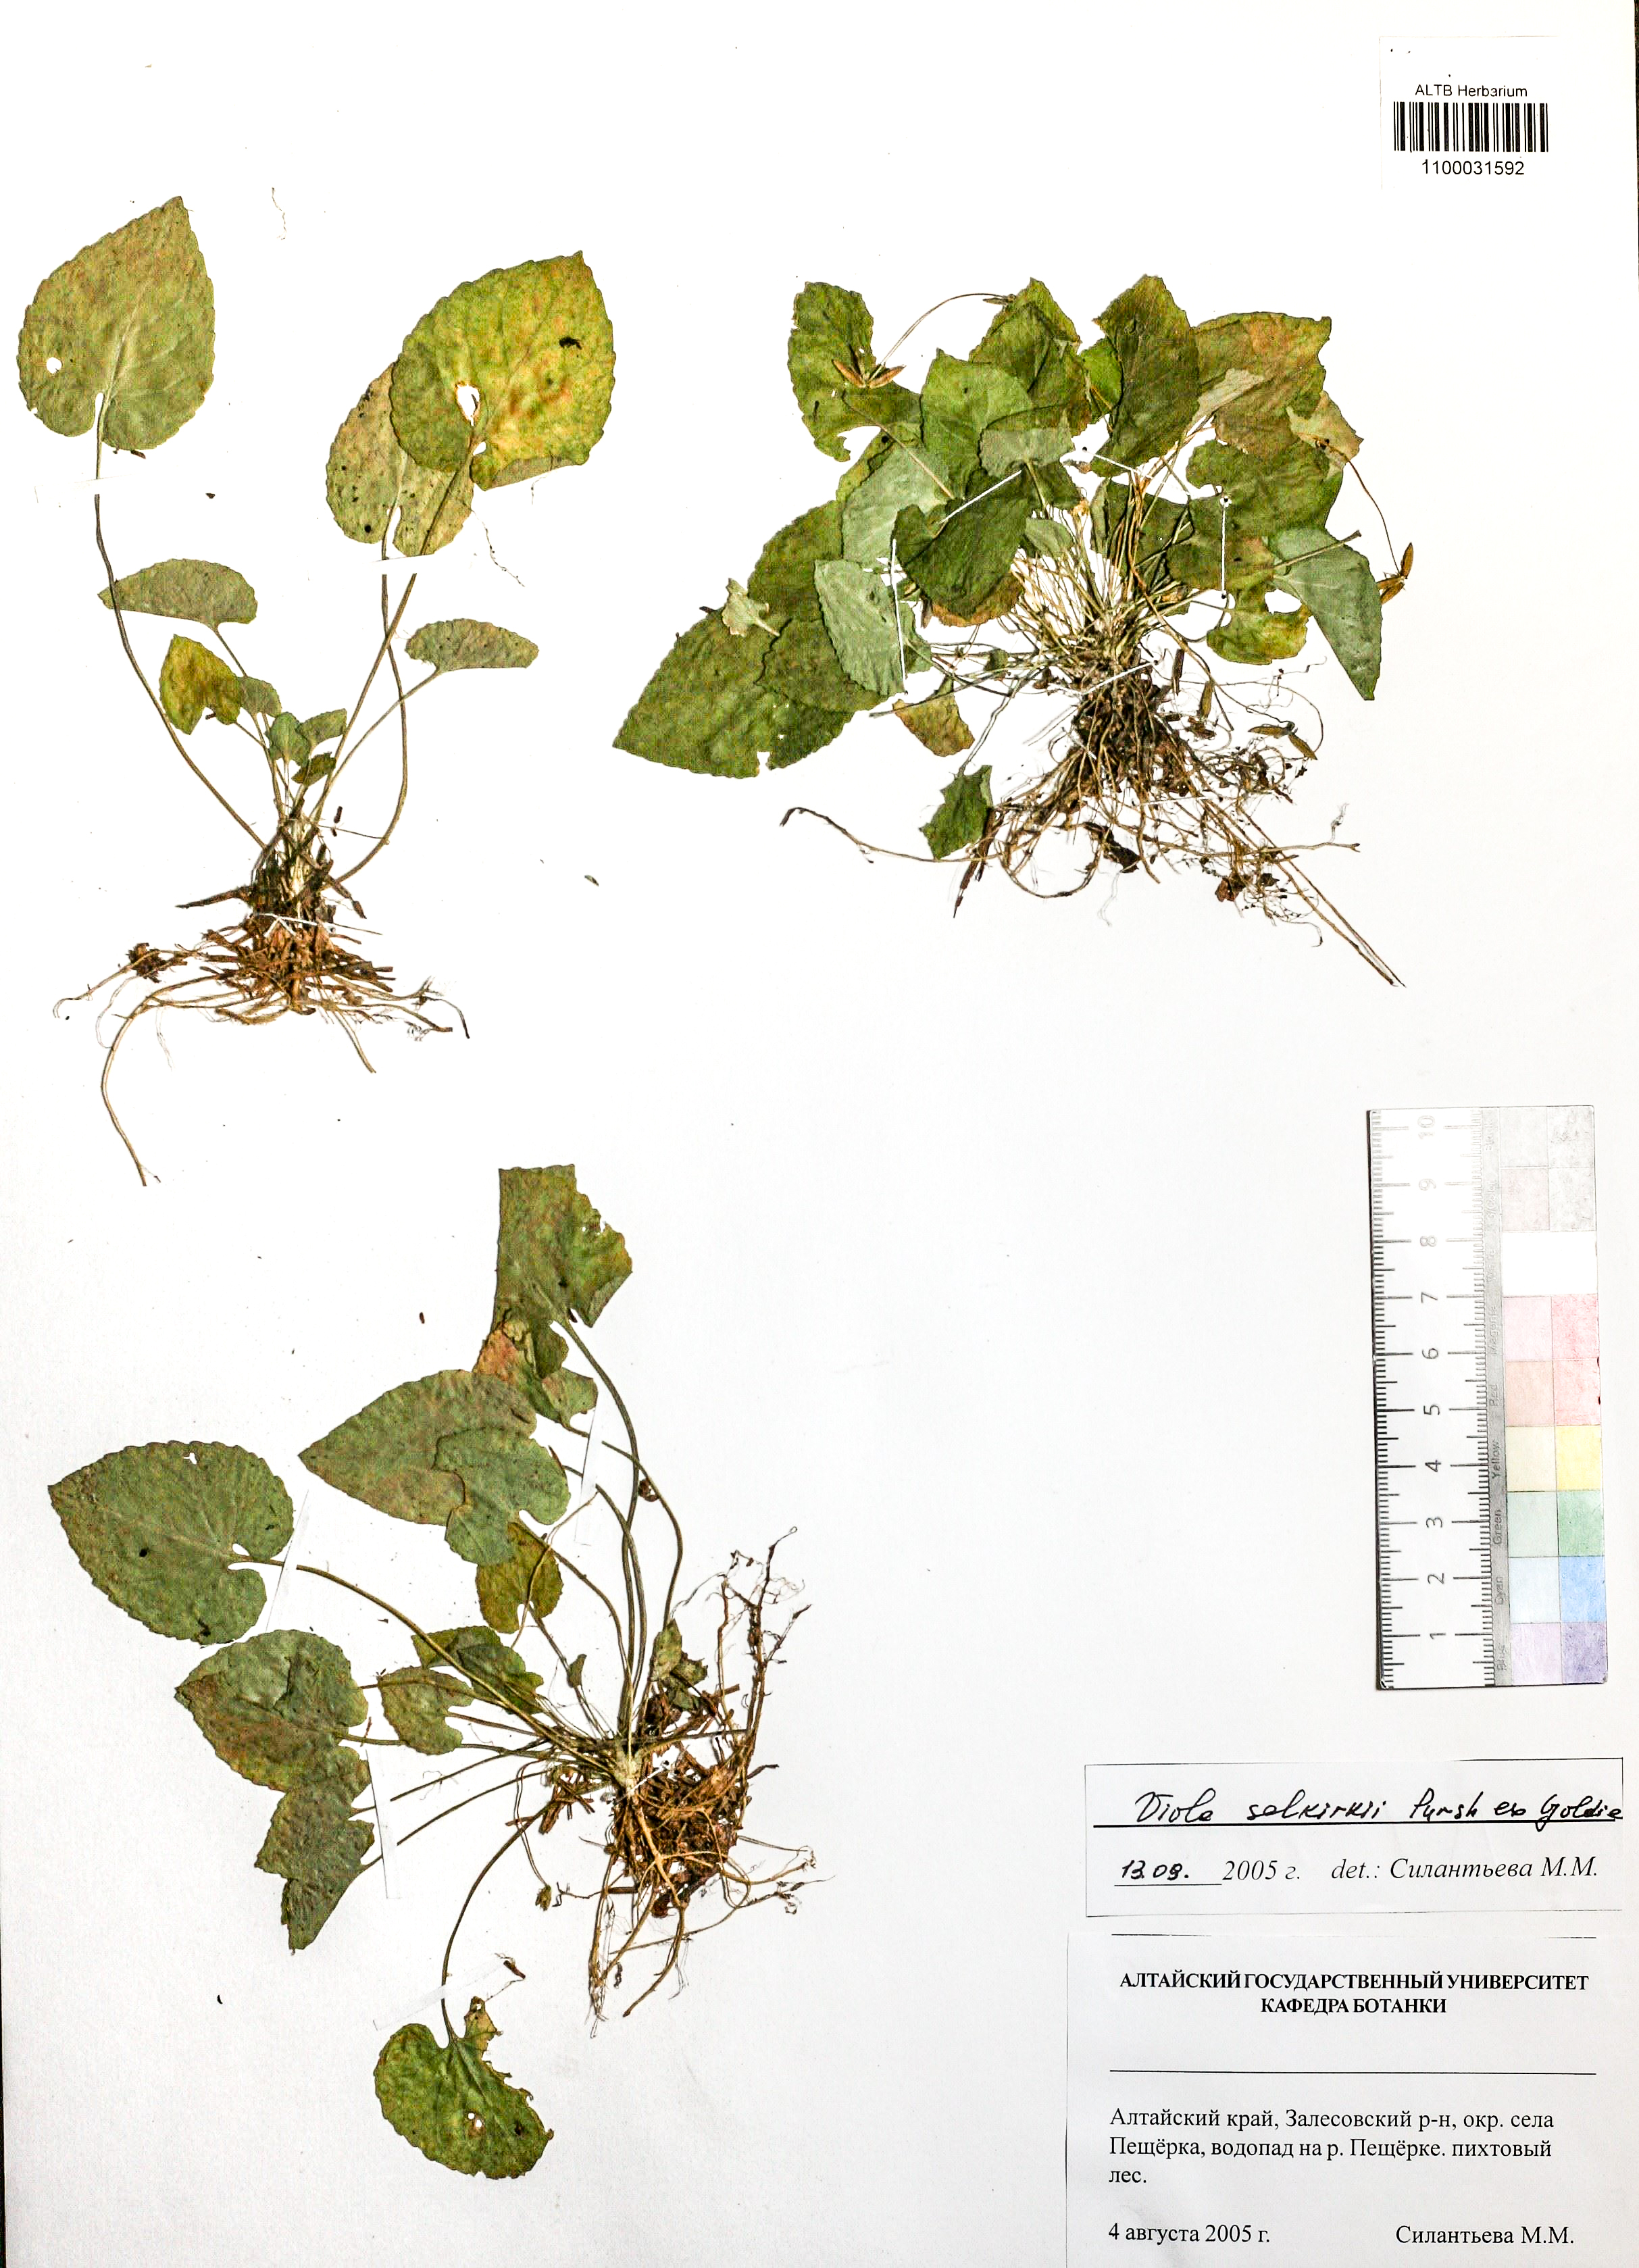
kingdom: Plantae
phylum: Tracheophyta
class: Magnoliopsida
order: Malpighiales
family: Violaceae
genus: Viola
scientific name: Viola selkirkii
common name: Selkirk's violet
